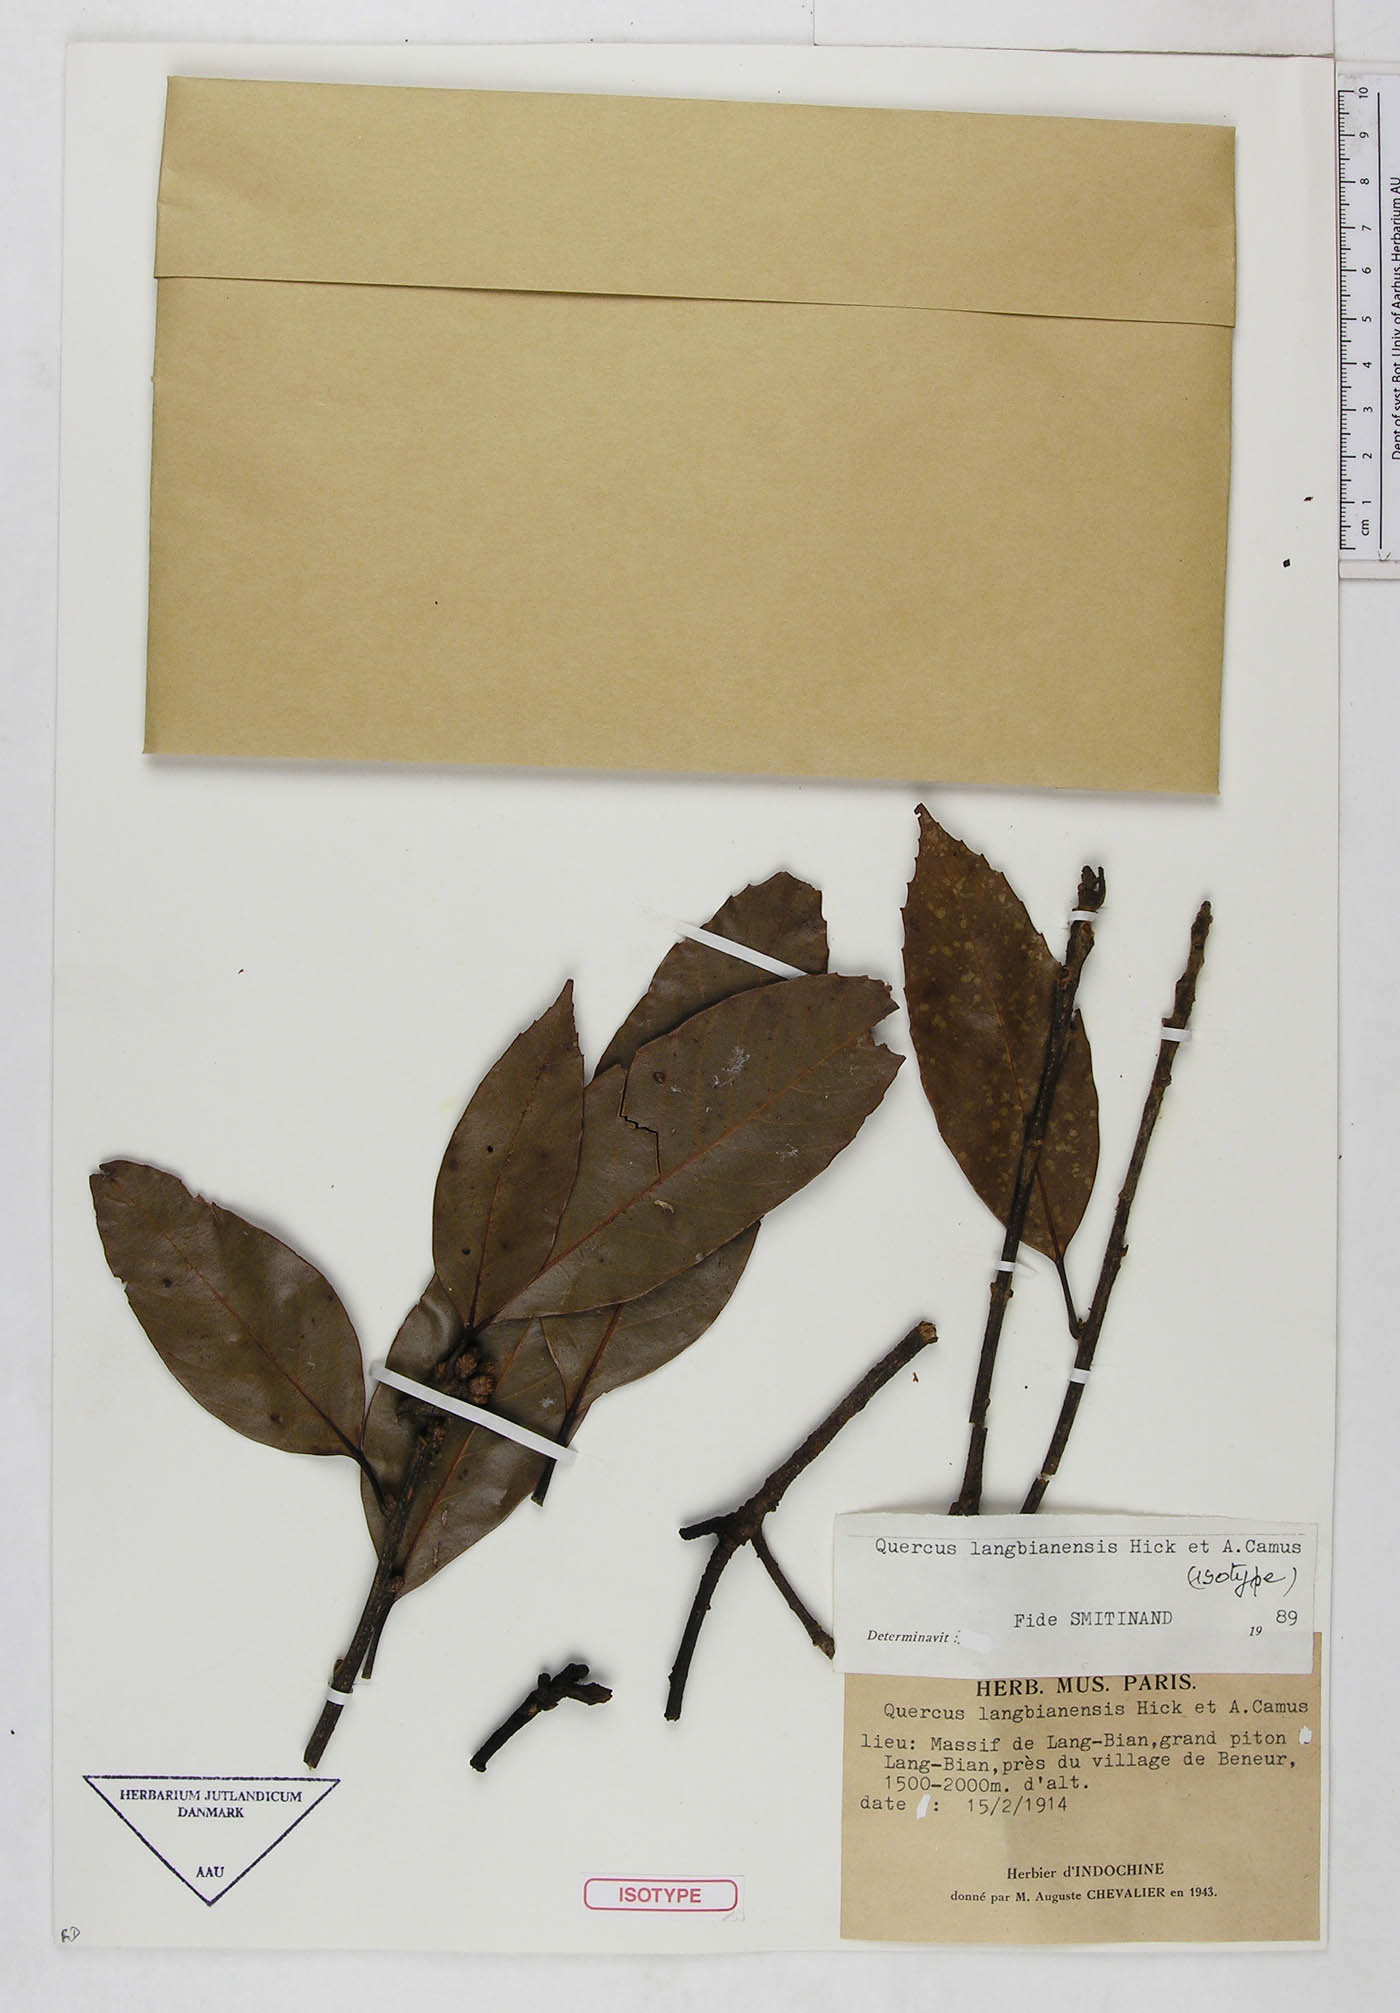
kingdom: Plantae
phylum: Tracheophyta
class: Magnoliopsida
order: Fagales
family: Fagaceae
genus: Quercus
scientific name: Quercus langbianensis
